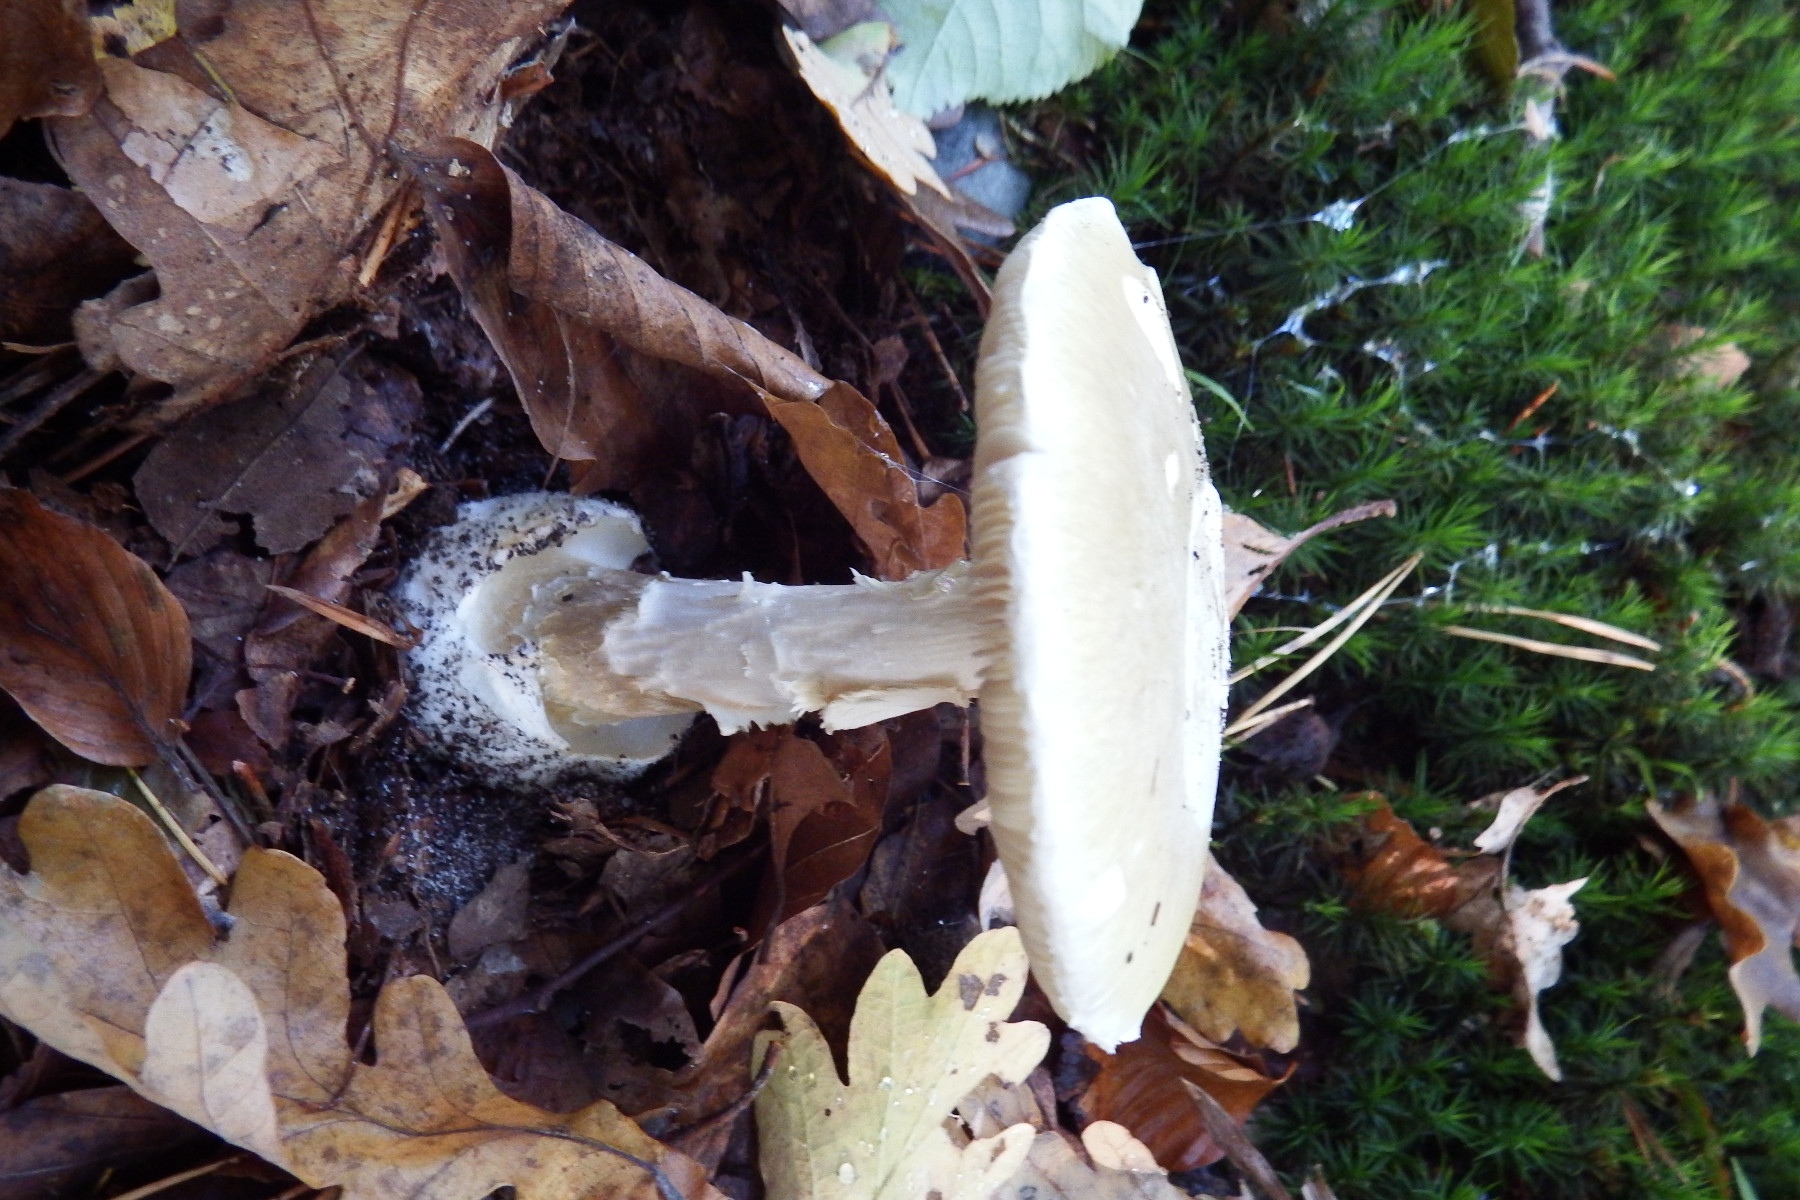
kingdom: Fungi
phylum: Basidiomycota
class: Agaricomycetes
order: Agaricales
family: Amanitaceae
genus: Amanita
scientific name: Amanita phalloides
